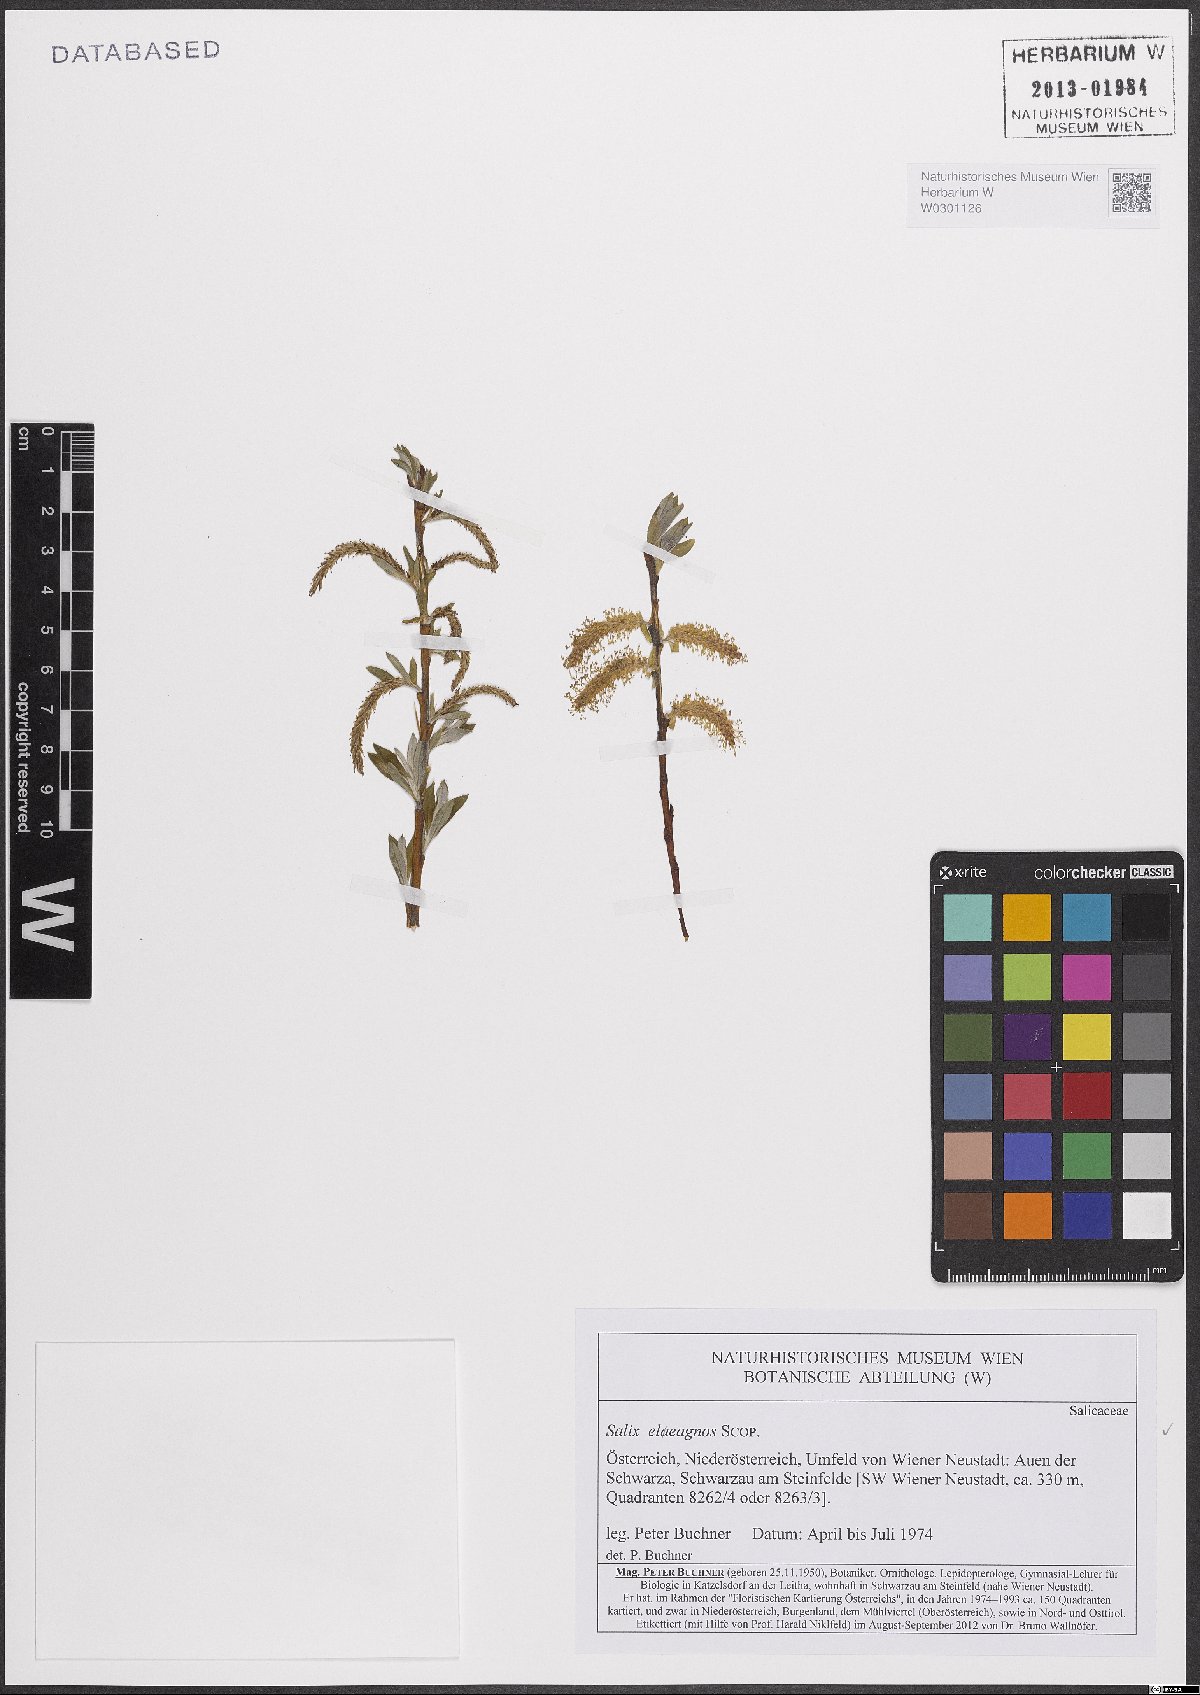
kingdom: Plantae
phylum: Tracheophyta
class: Magnoliopsida
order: Malpighiales
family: Salicaceae
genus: Salix
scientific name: Salix eleagnos
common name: Elaeagnus willow
